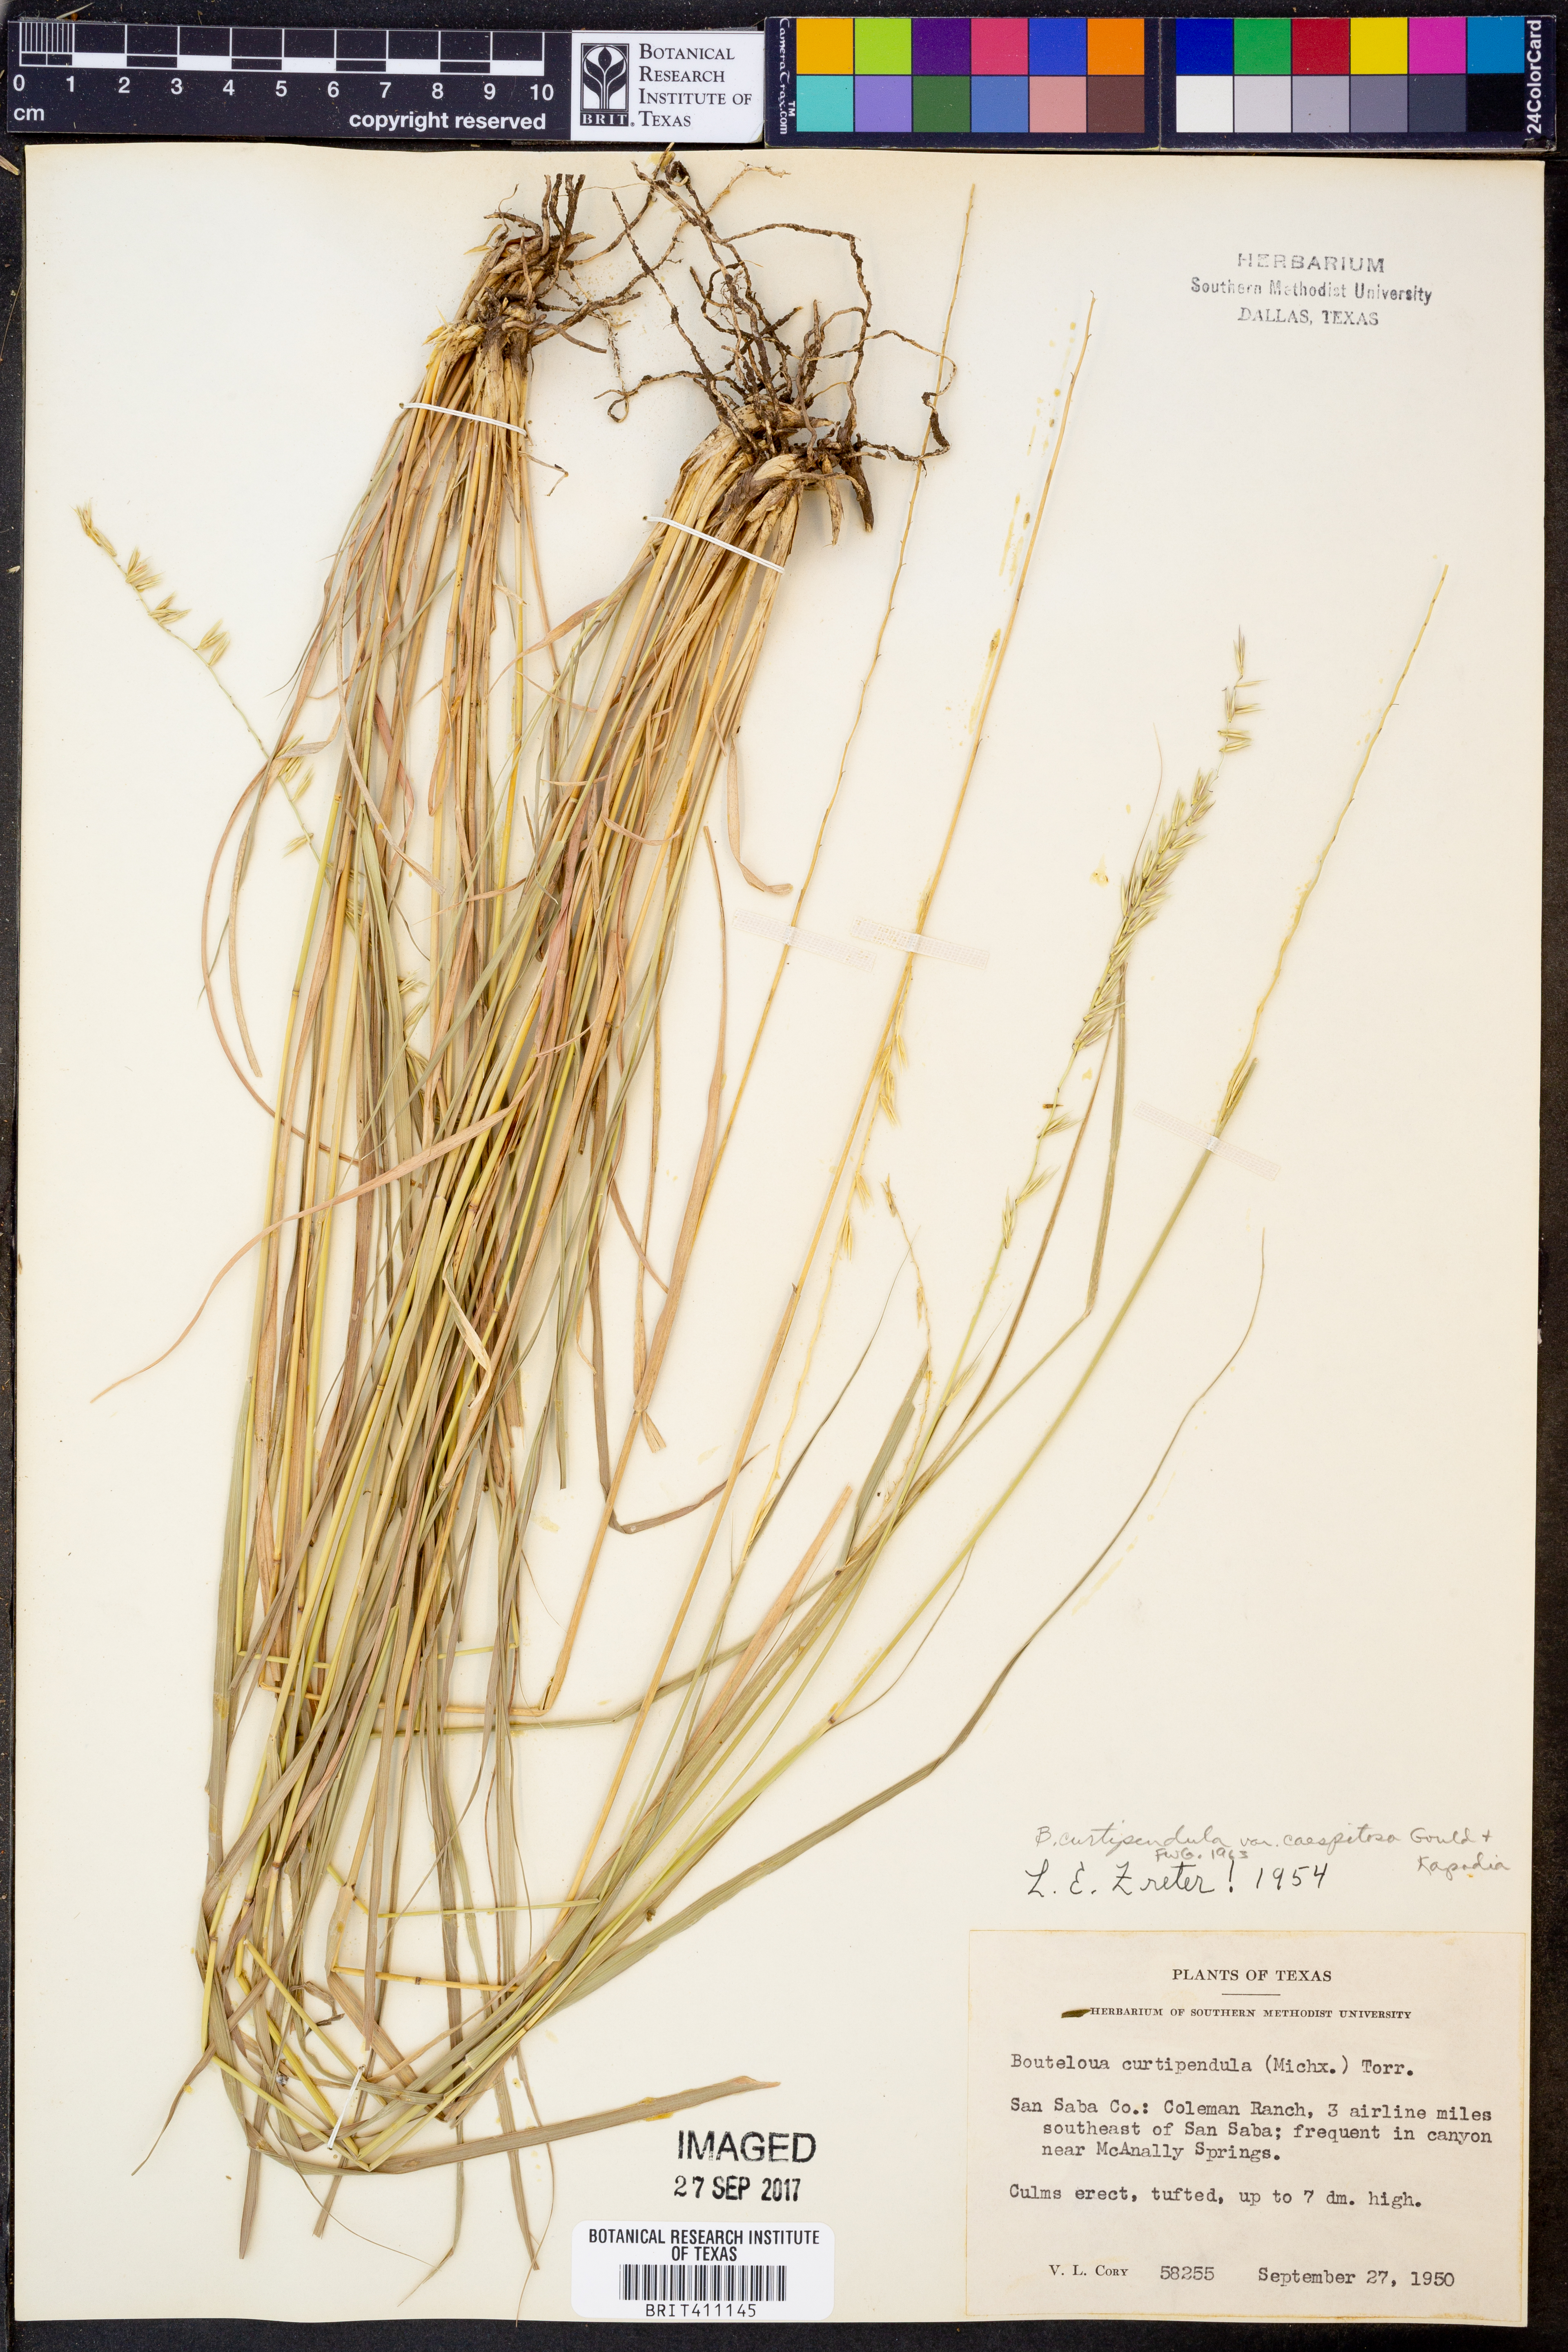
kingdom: Plantae
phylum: Tracheophyta
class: Liliopsida
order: Poales
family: Poaceae
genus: Bouteloua
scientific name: Bouteloua curtipendula
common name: Side-oats grama
